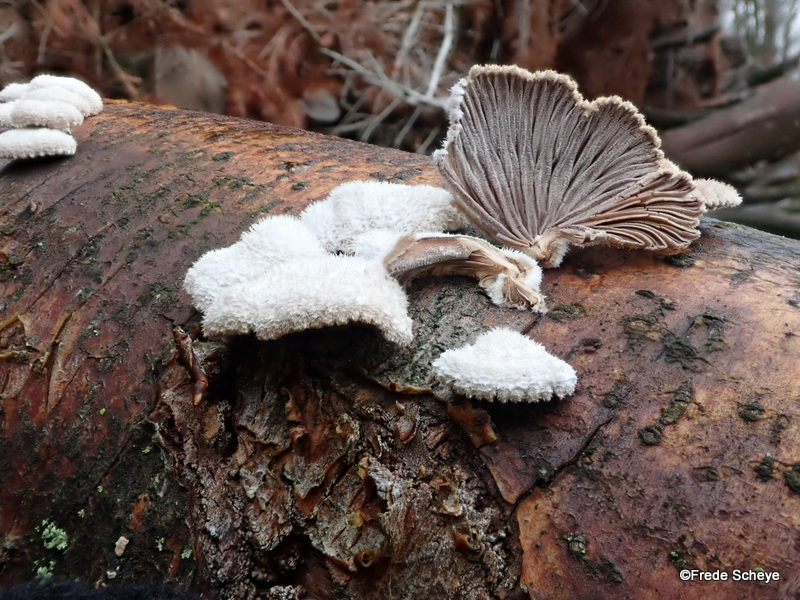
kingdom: Fungi
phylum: Basidiomycota
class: Agaricomycetes
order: Agaricales
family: Schizophyllaceae
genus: Schizophyllum
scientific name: Schizophyllum commune
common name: kløvblad
